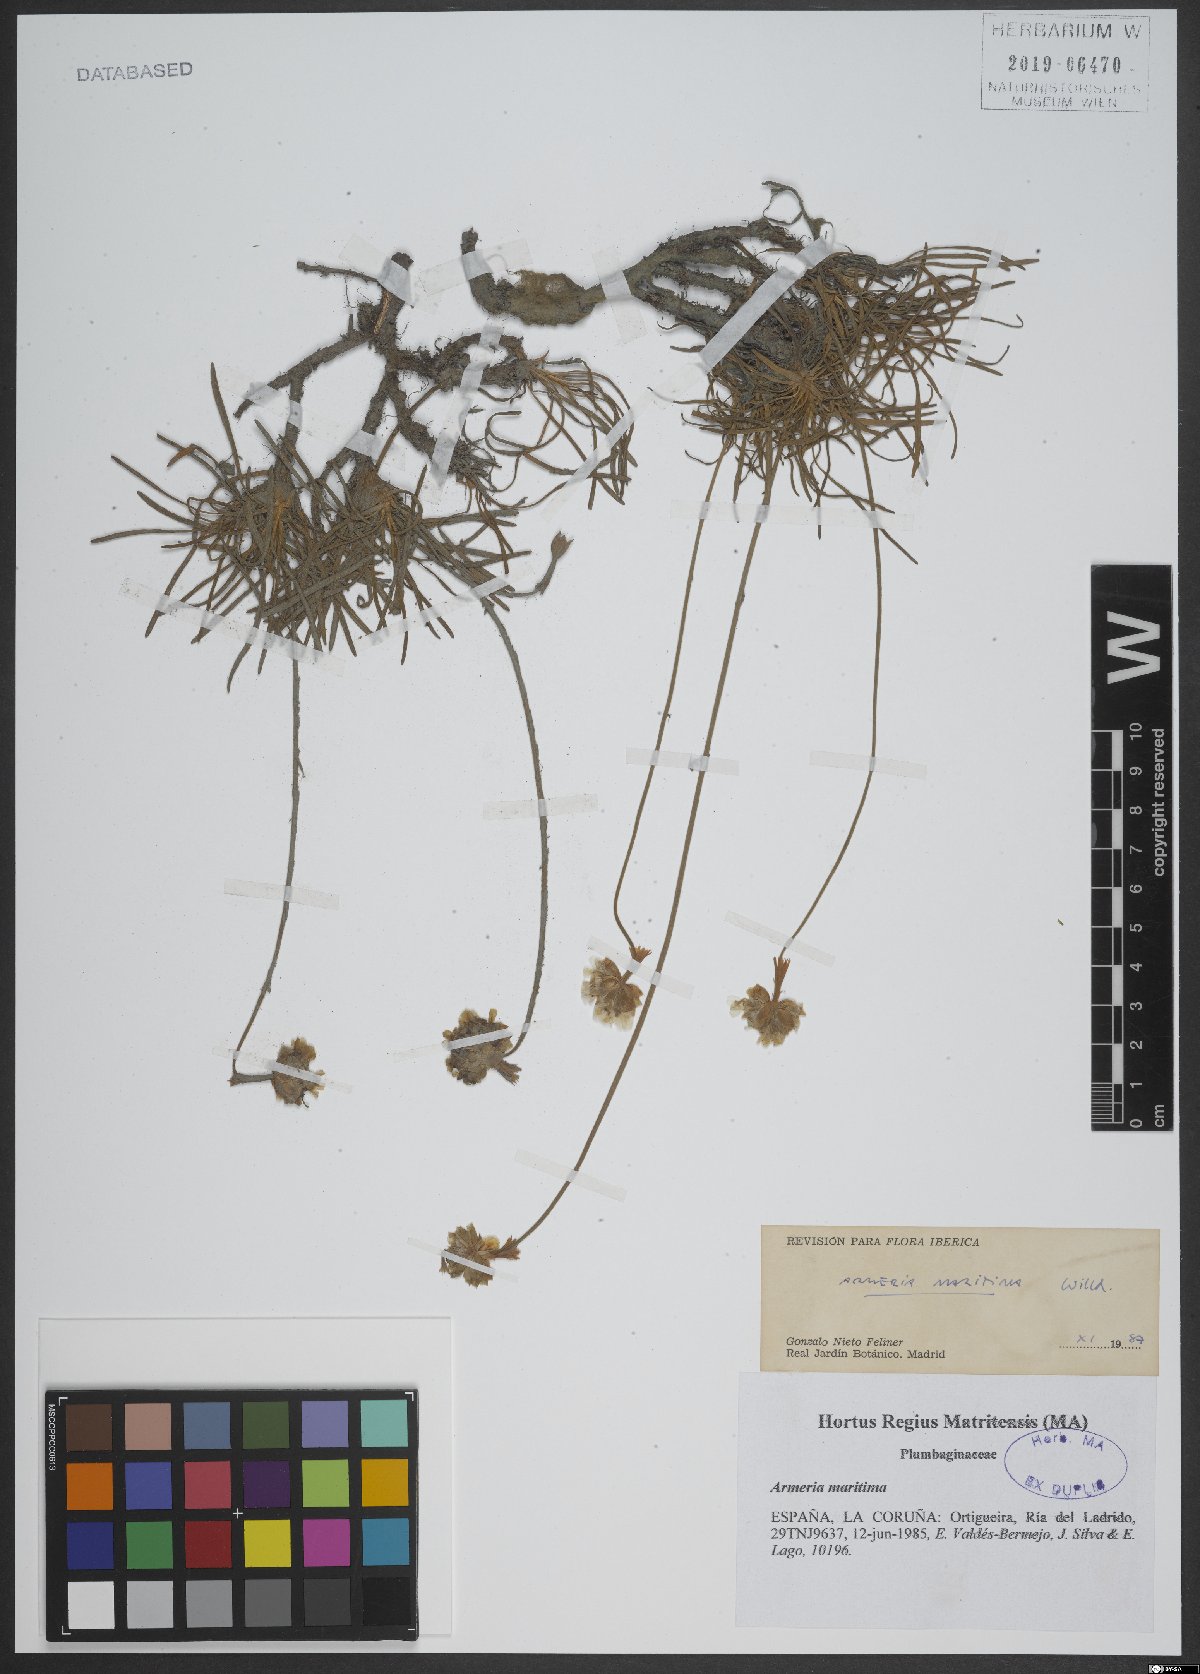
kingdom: Plantae
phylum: Tracheophyta
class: Magnoliopsida
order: Caryophyllales
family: Plumbaginaceae
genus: Armeria
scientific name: Armeria maritima
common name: Thrift
